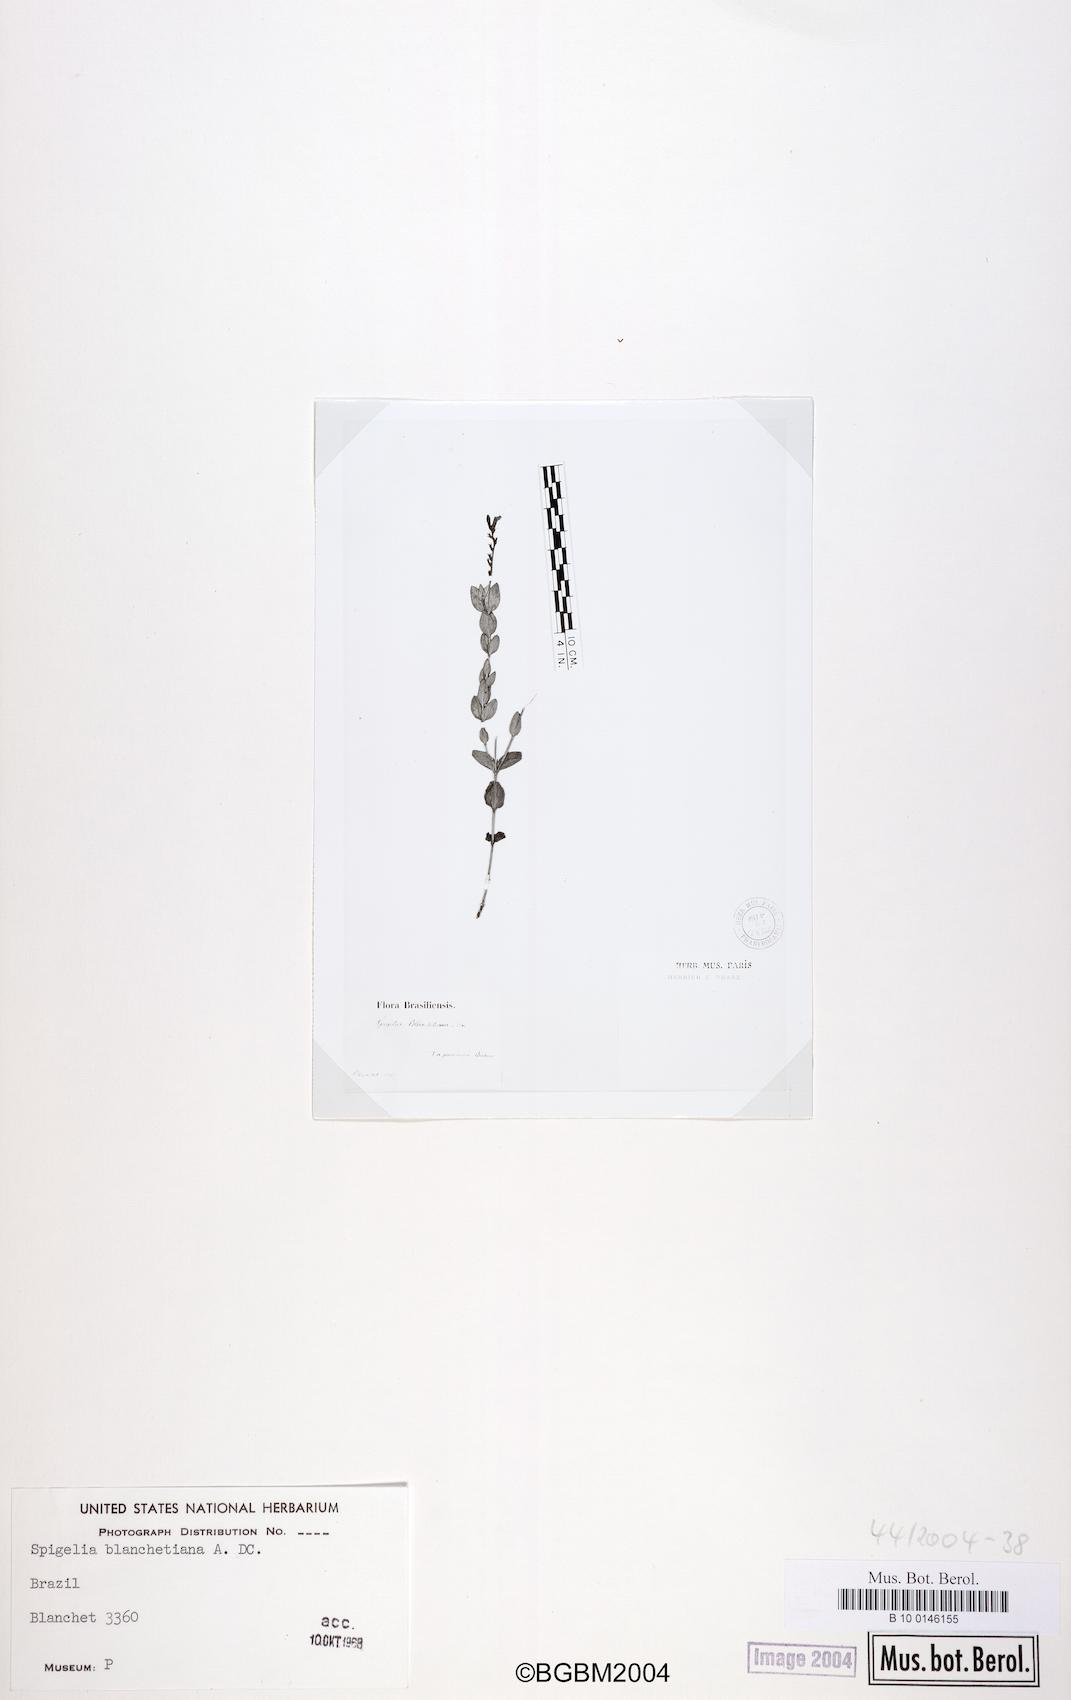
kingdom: Plantae
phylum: Tracheophyta
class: Magnoliopsida
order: Gentianales
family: Loganiaceae
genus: Spigelia
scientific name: Spigelia blanchetiana
